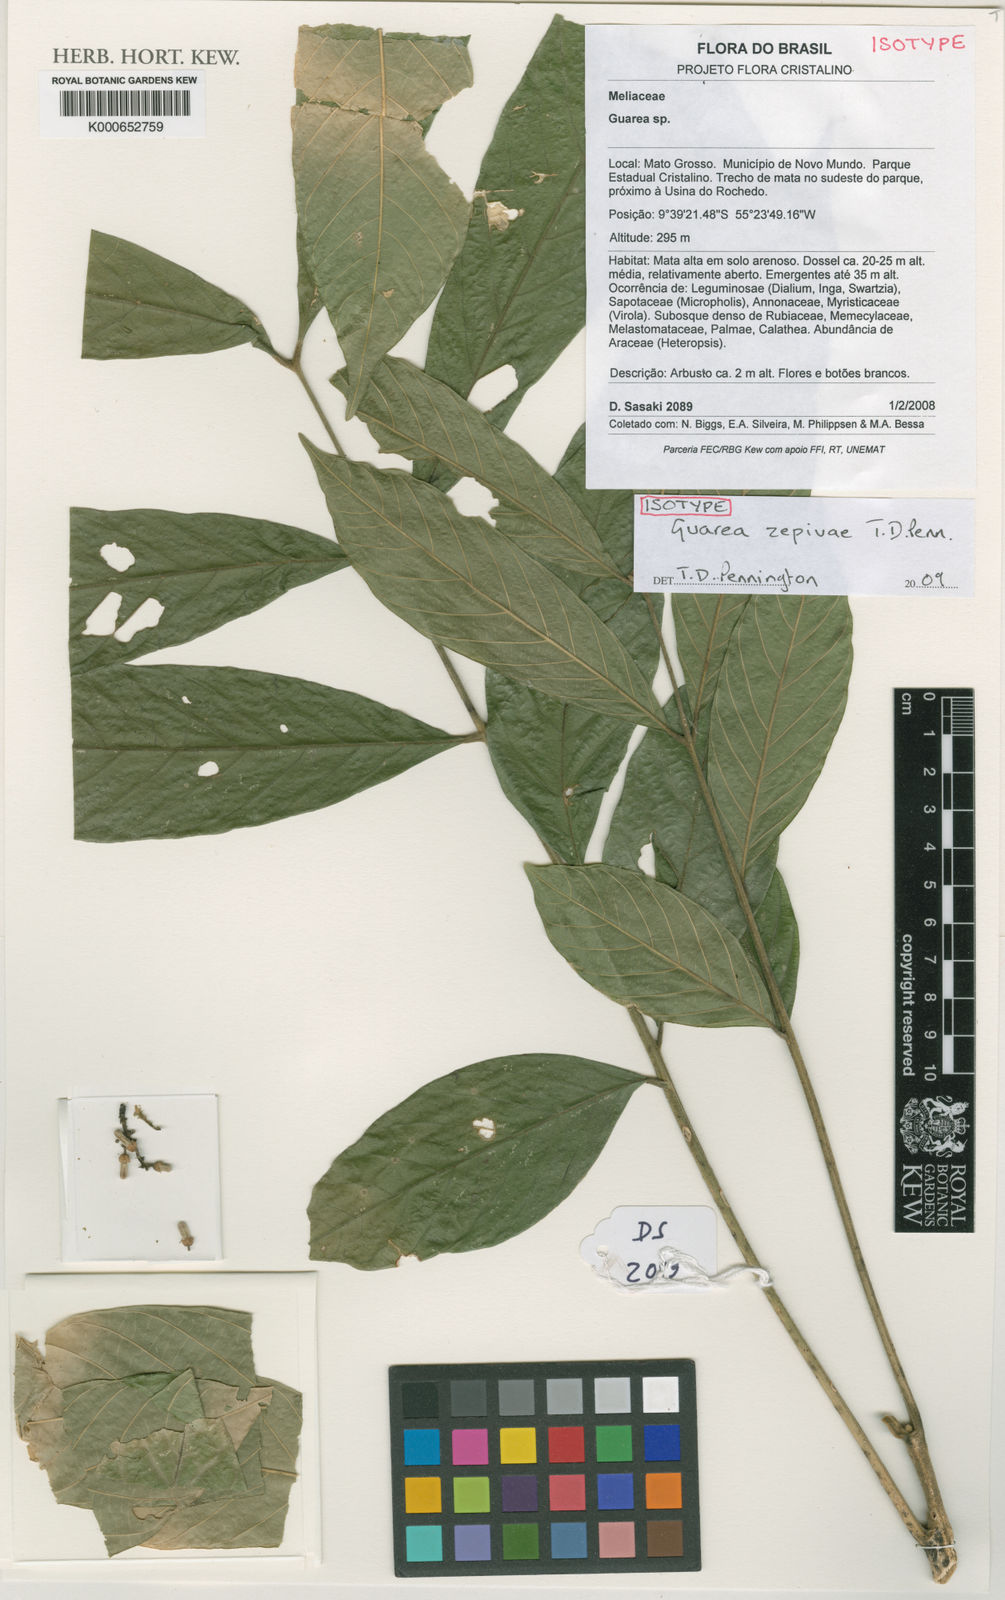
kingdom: Plantae
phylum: Tracheophyta
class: Magnoliopsida
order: Sapindales
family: Meliaceae
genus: Guarea
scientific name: Guarea zepivae
